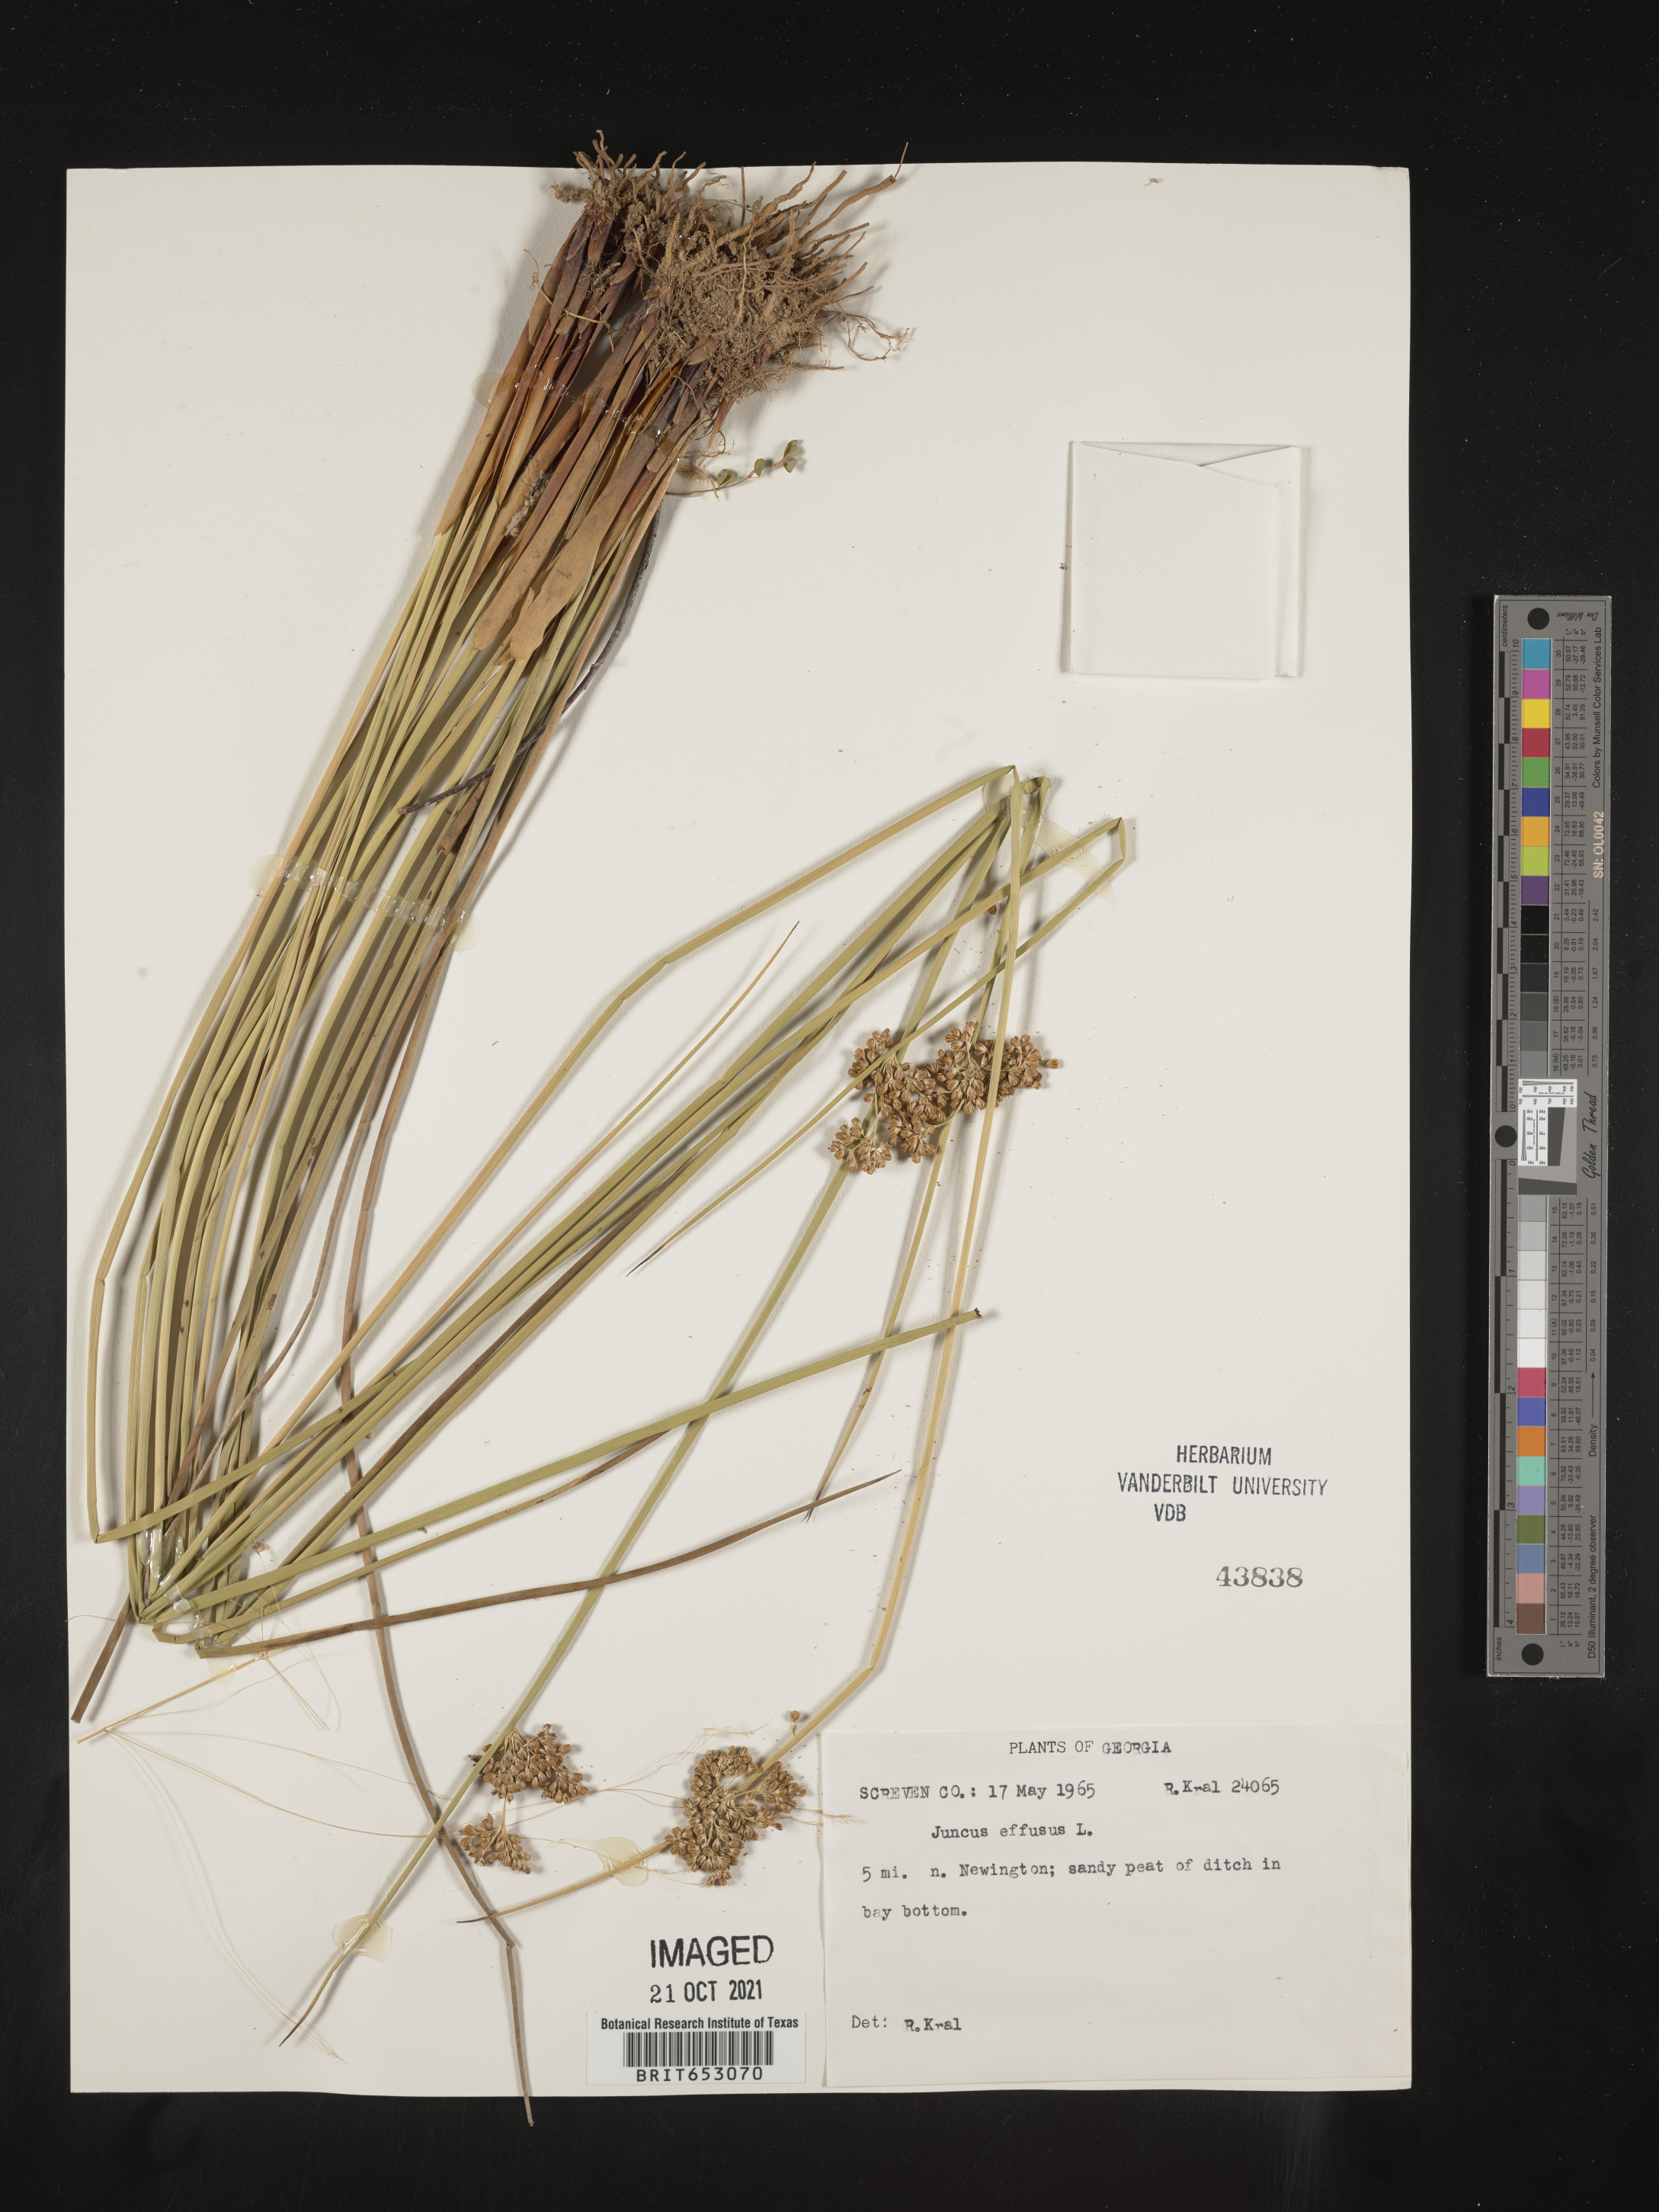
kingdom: Plantae
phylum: Tracheophyta
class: Liliopsida
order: Poales
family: Juncaceae
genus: Juncus
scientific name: Juncus effusus
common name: Soft rush
